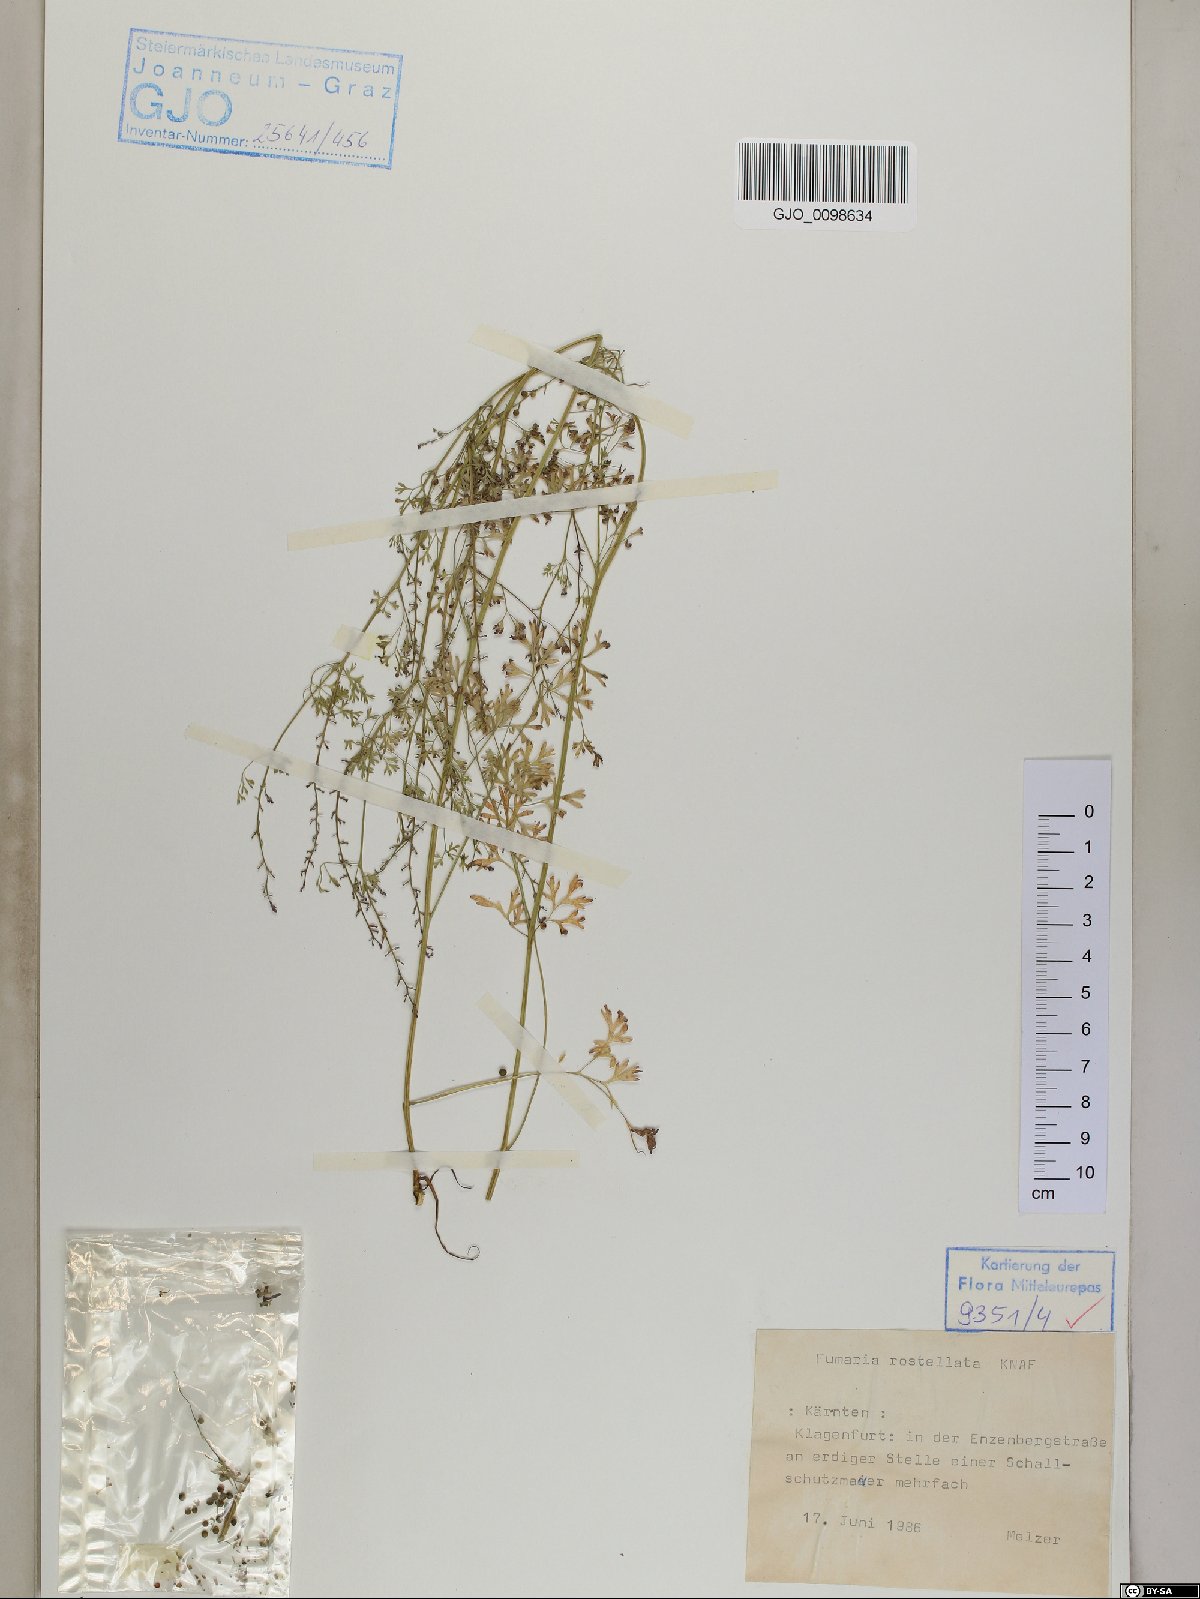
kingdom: Plantae
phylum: Tracheophyta
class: Magnoliopsida
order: Ranunculales
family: Papaveraceae
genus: Fumaria
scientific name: Fumaria rostellata
